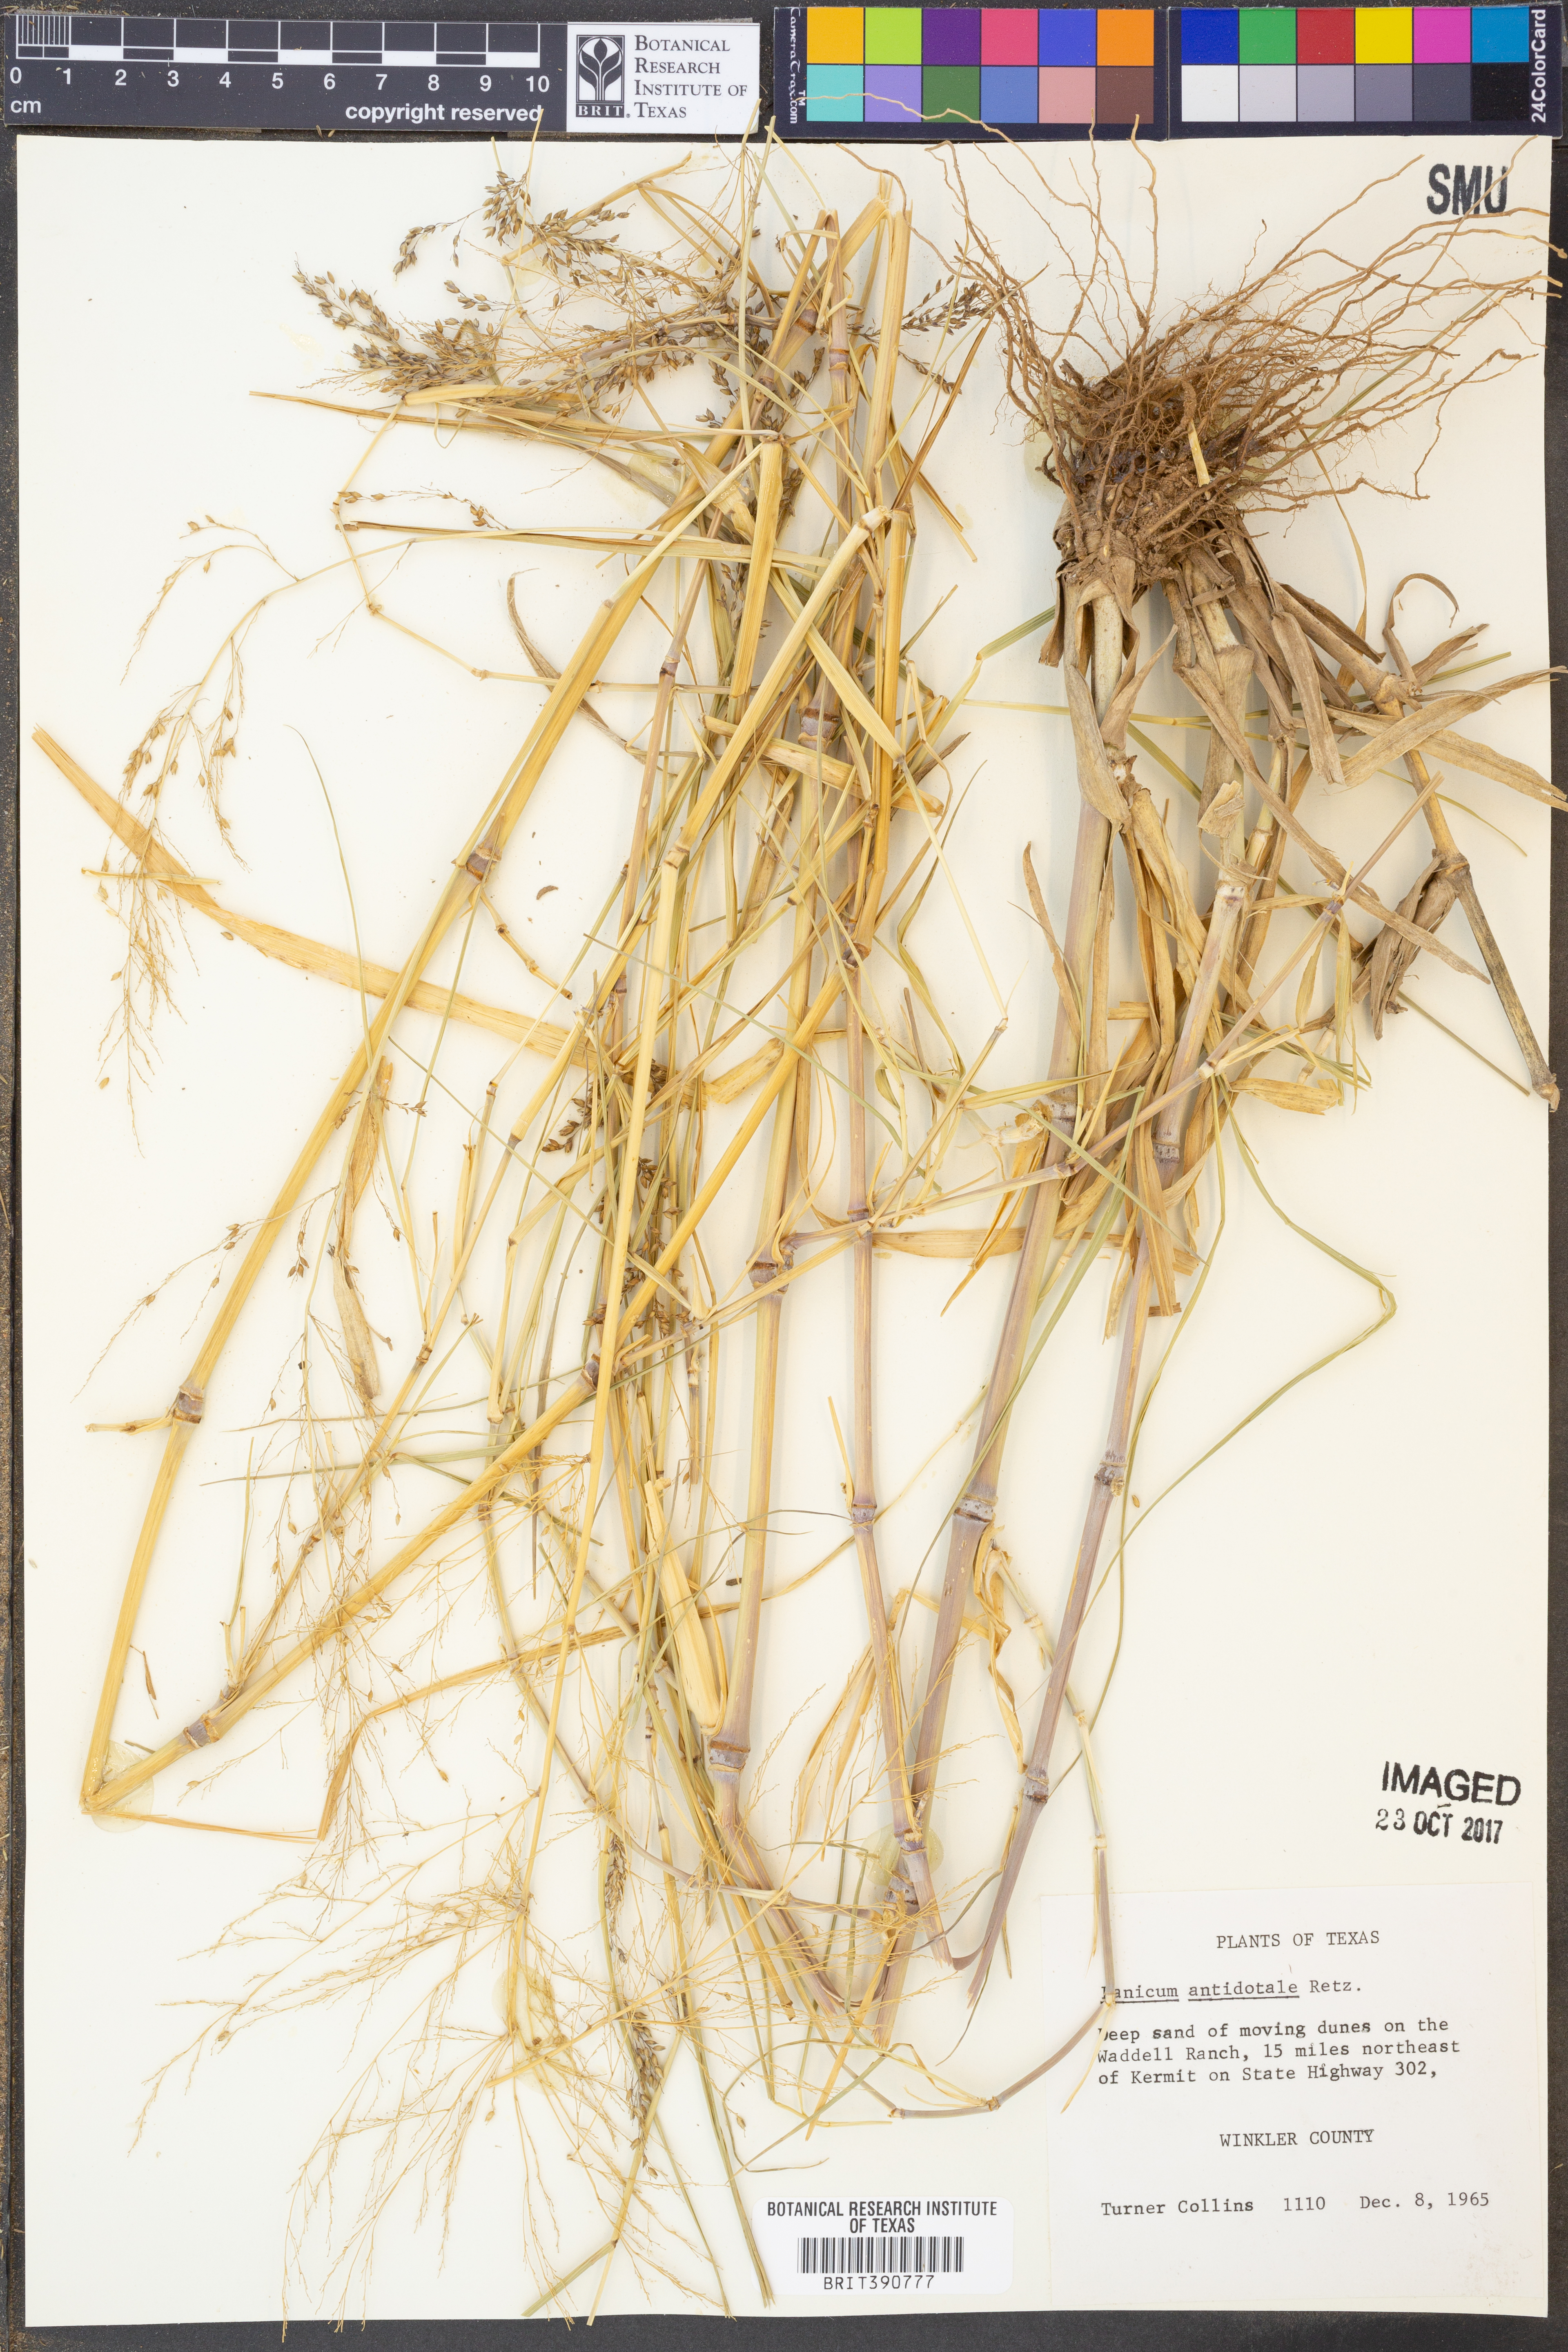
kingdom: Plantae
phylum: Tracheophyta
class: Liliopsida
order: Poales
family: Poaceae
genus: Panicum
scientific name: Panicum antidotale
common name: Blue panicum
